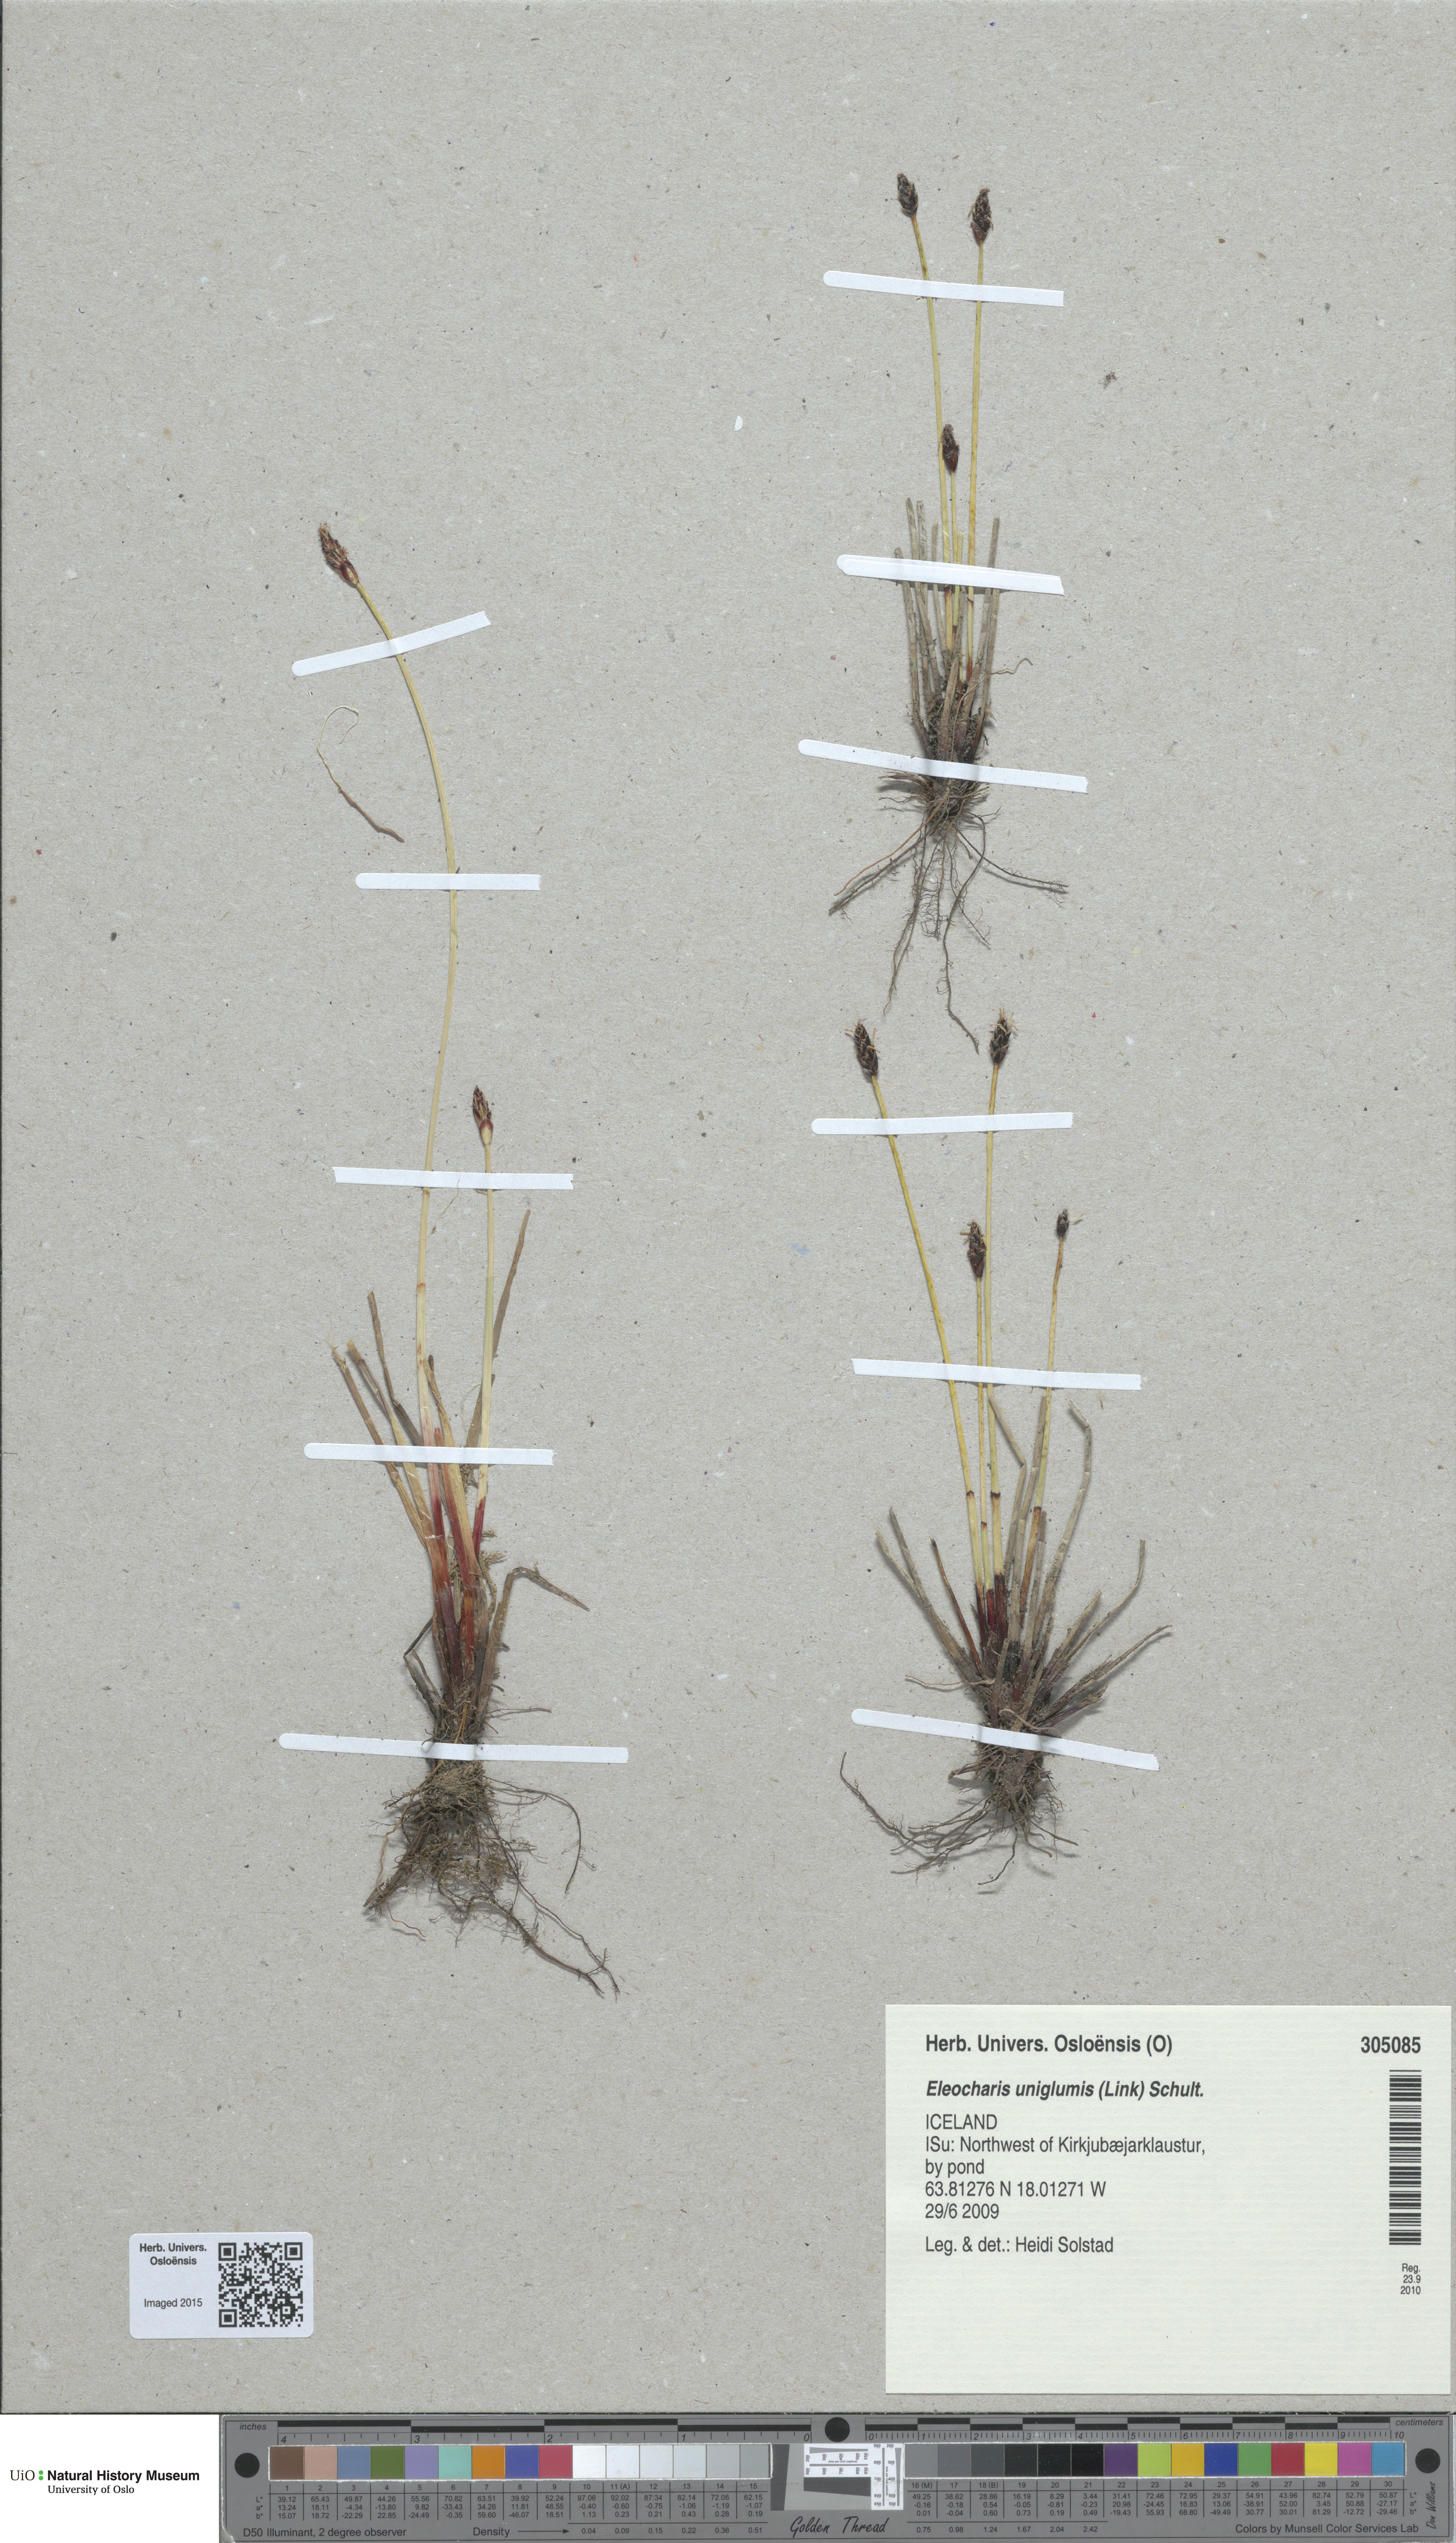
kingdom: Plantae
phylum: Tracheophyta
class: Liliopsida
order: Poales
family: Cyperaceae
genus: Eleocharis
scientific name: Eleocharis uniglumis
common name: Slender spike-rush
